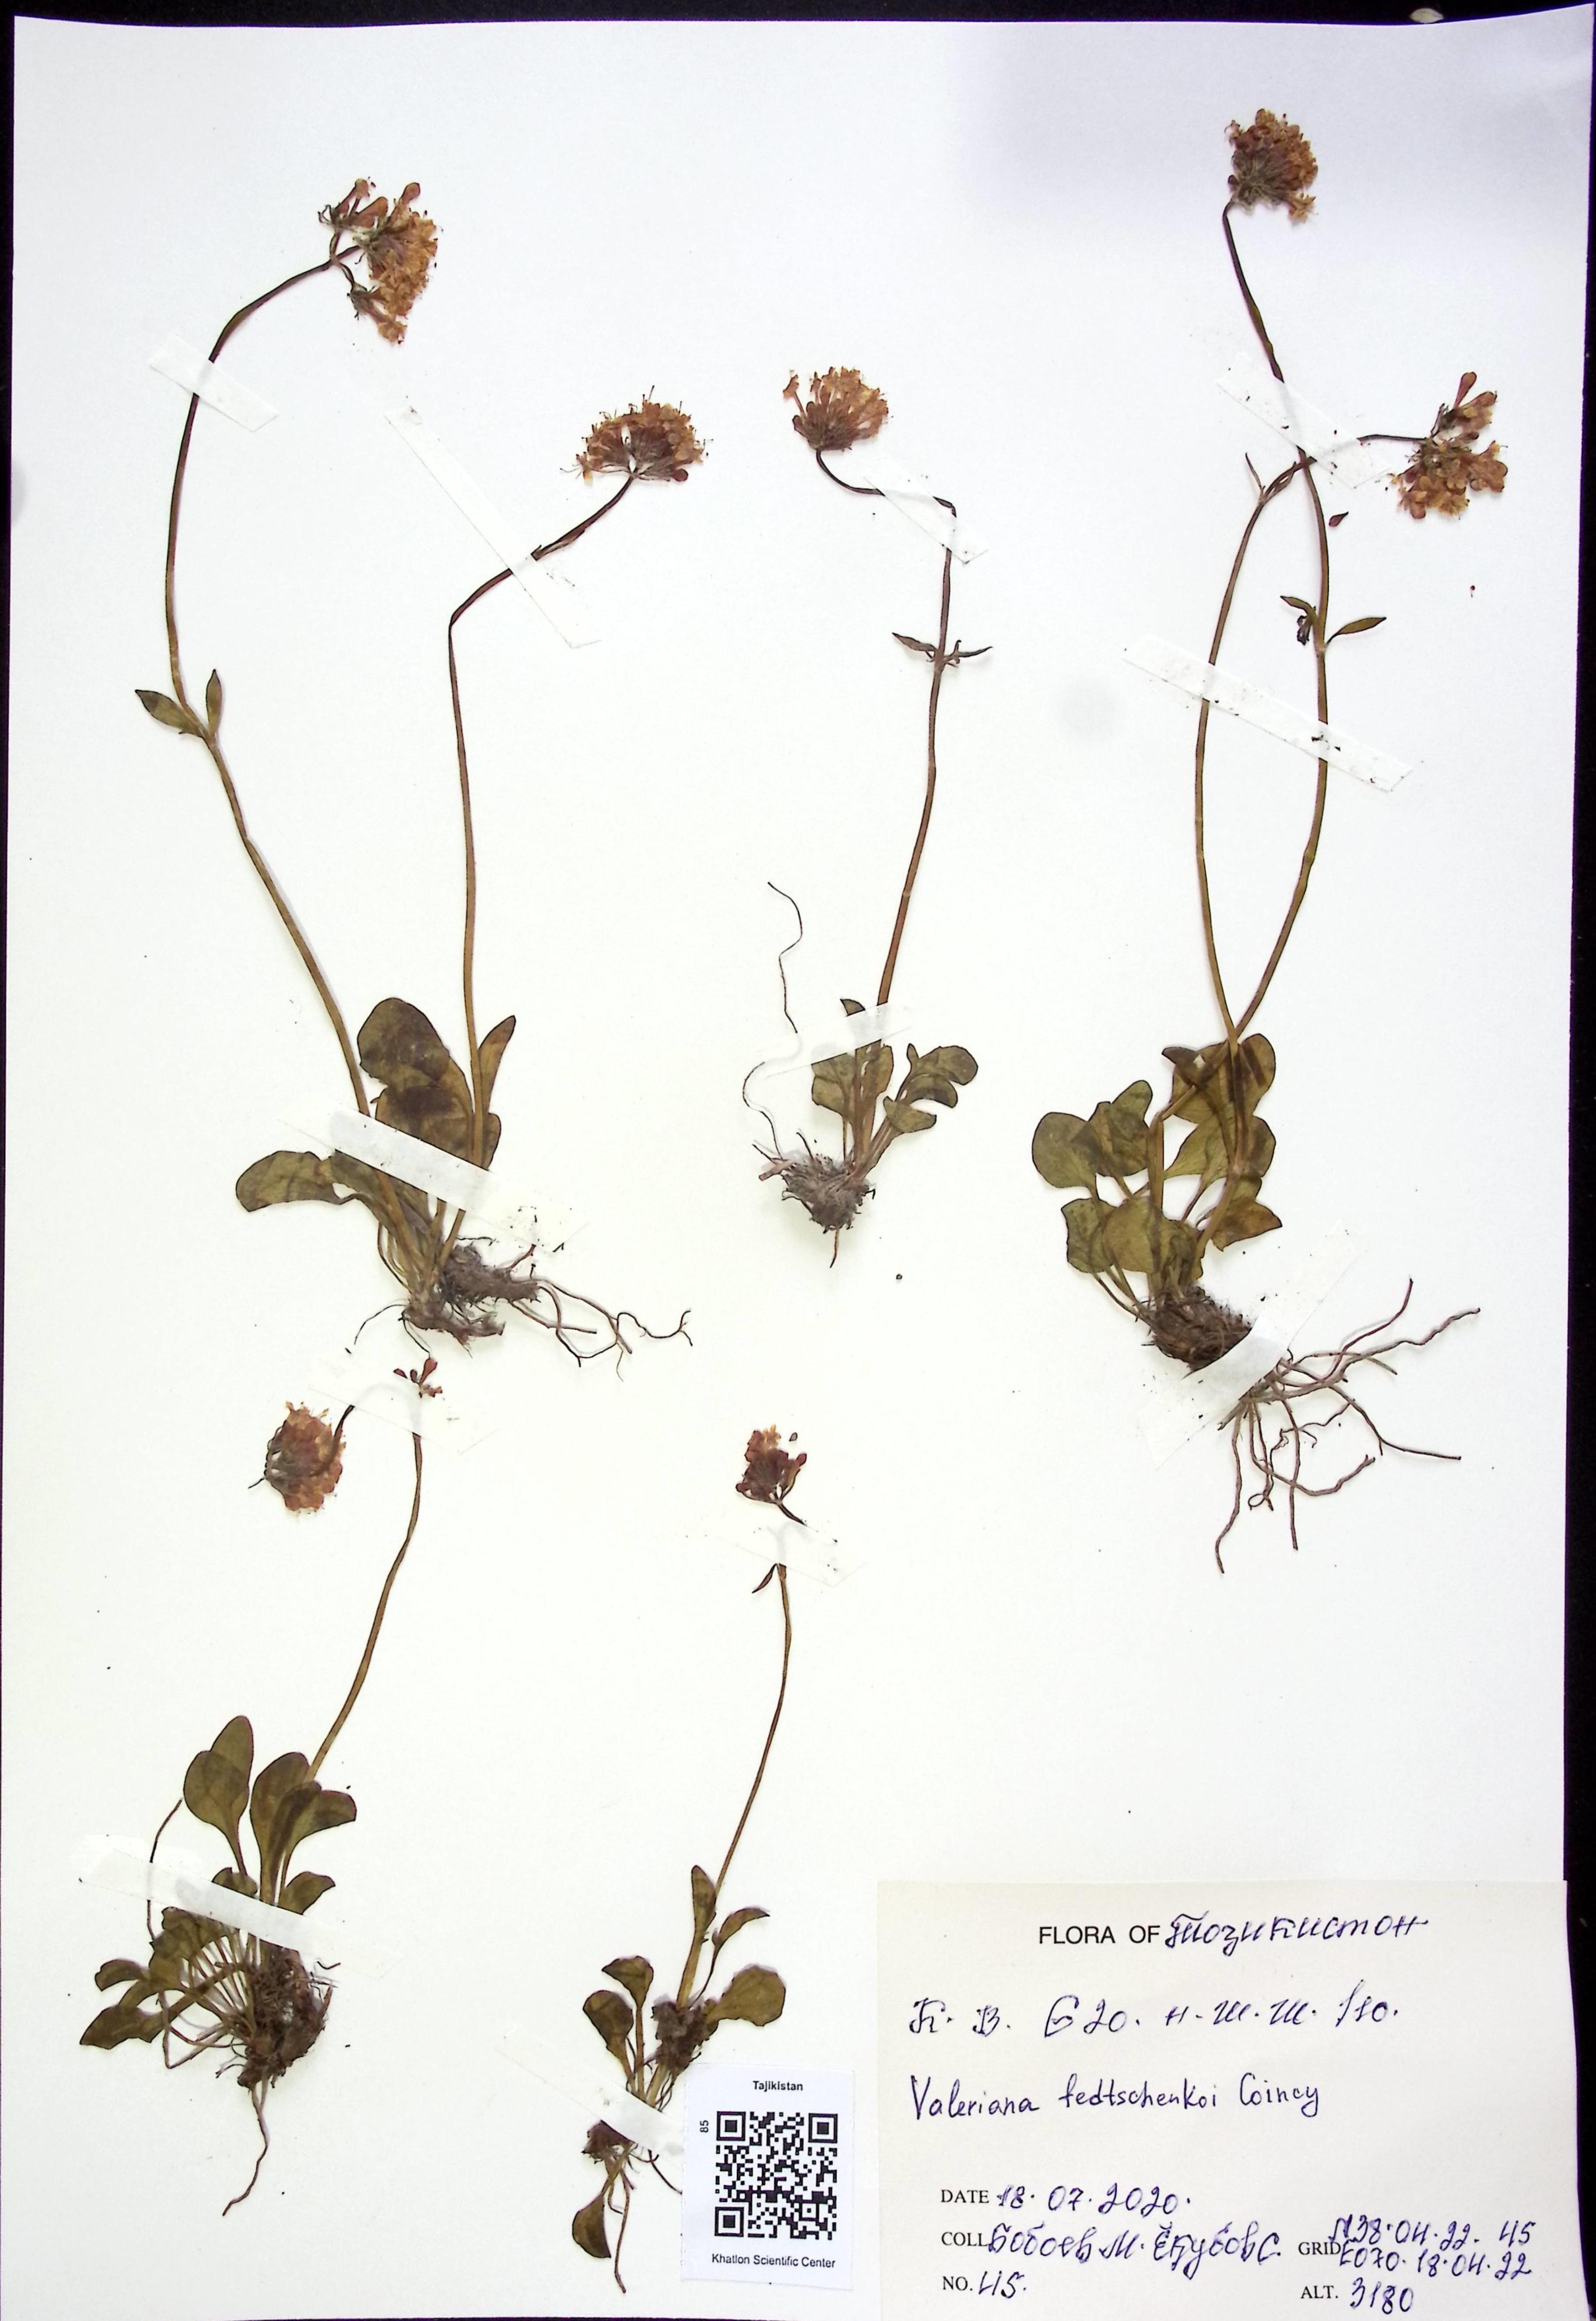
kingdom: Plantae
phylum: Tracheophyta
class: Magnoliopsida
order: Dipsacales
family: Caprifoliaceae
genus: Valeriana
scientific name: Valeriana fedtschenkoi
